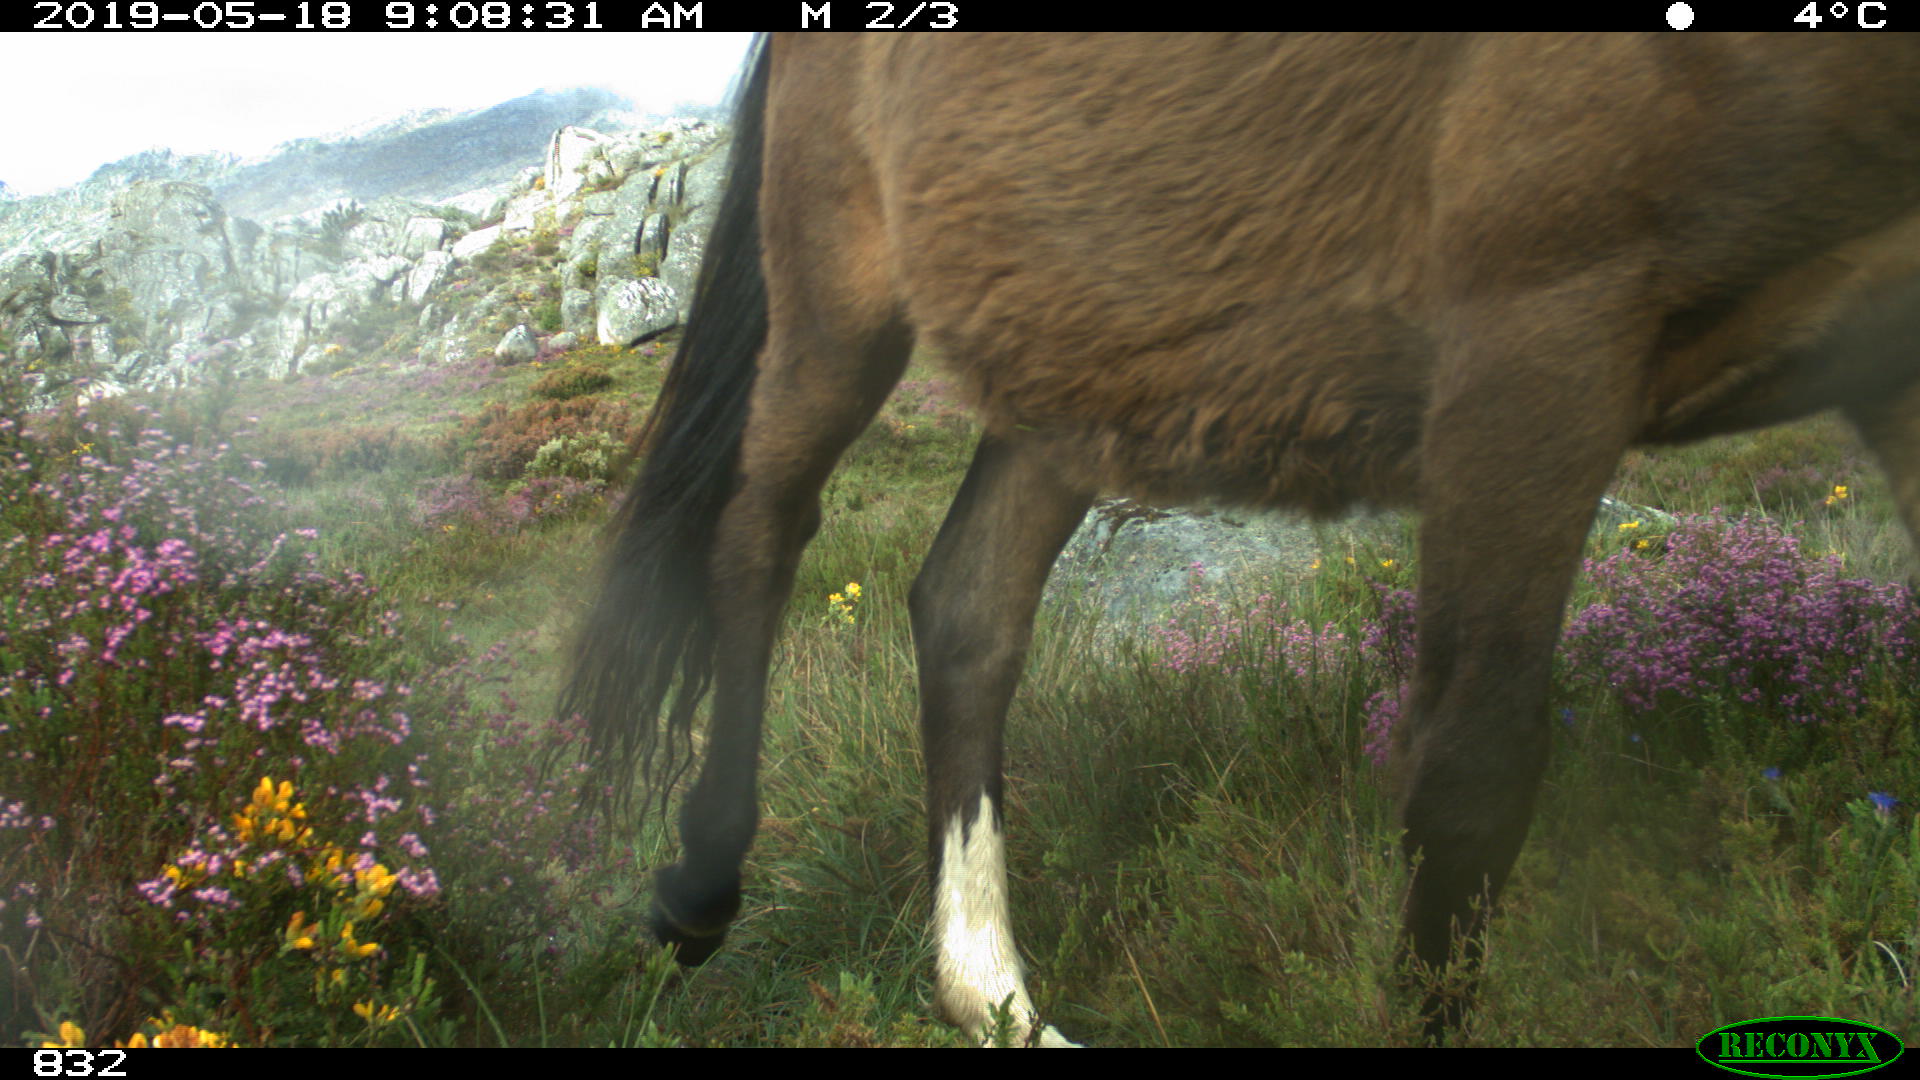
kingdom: Animalia
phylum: Chordata
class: Mammalia
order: Perissodactyla
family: Equidae
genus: Equus
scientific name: Equus caballus
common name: Horse
